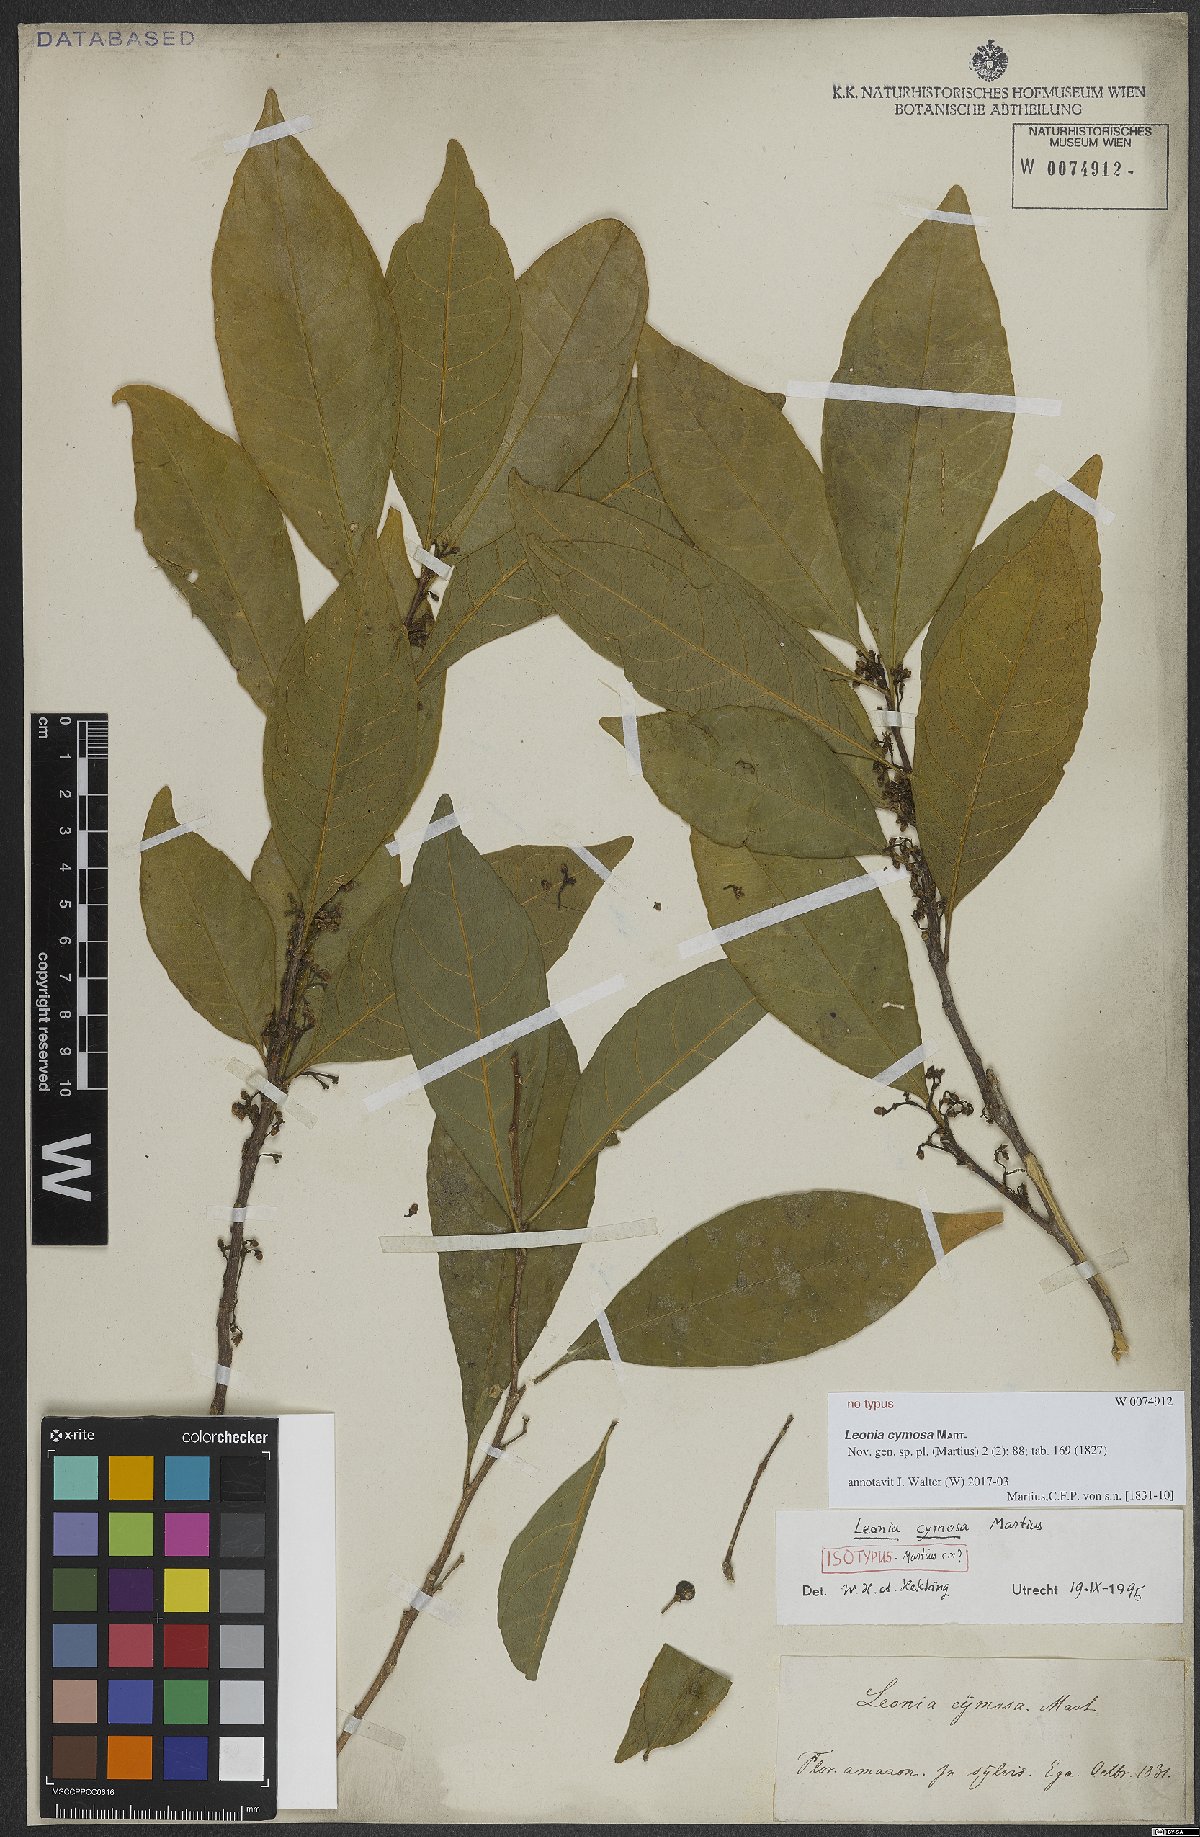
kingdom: Plantae
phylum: Tracheophyta
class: Magnoliopsida
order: Malpighiales
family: Violaceae
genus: Leonia
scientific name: Leonia cymosa
